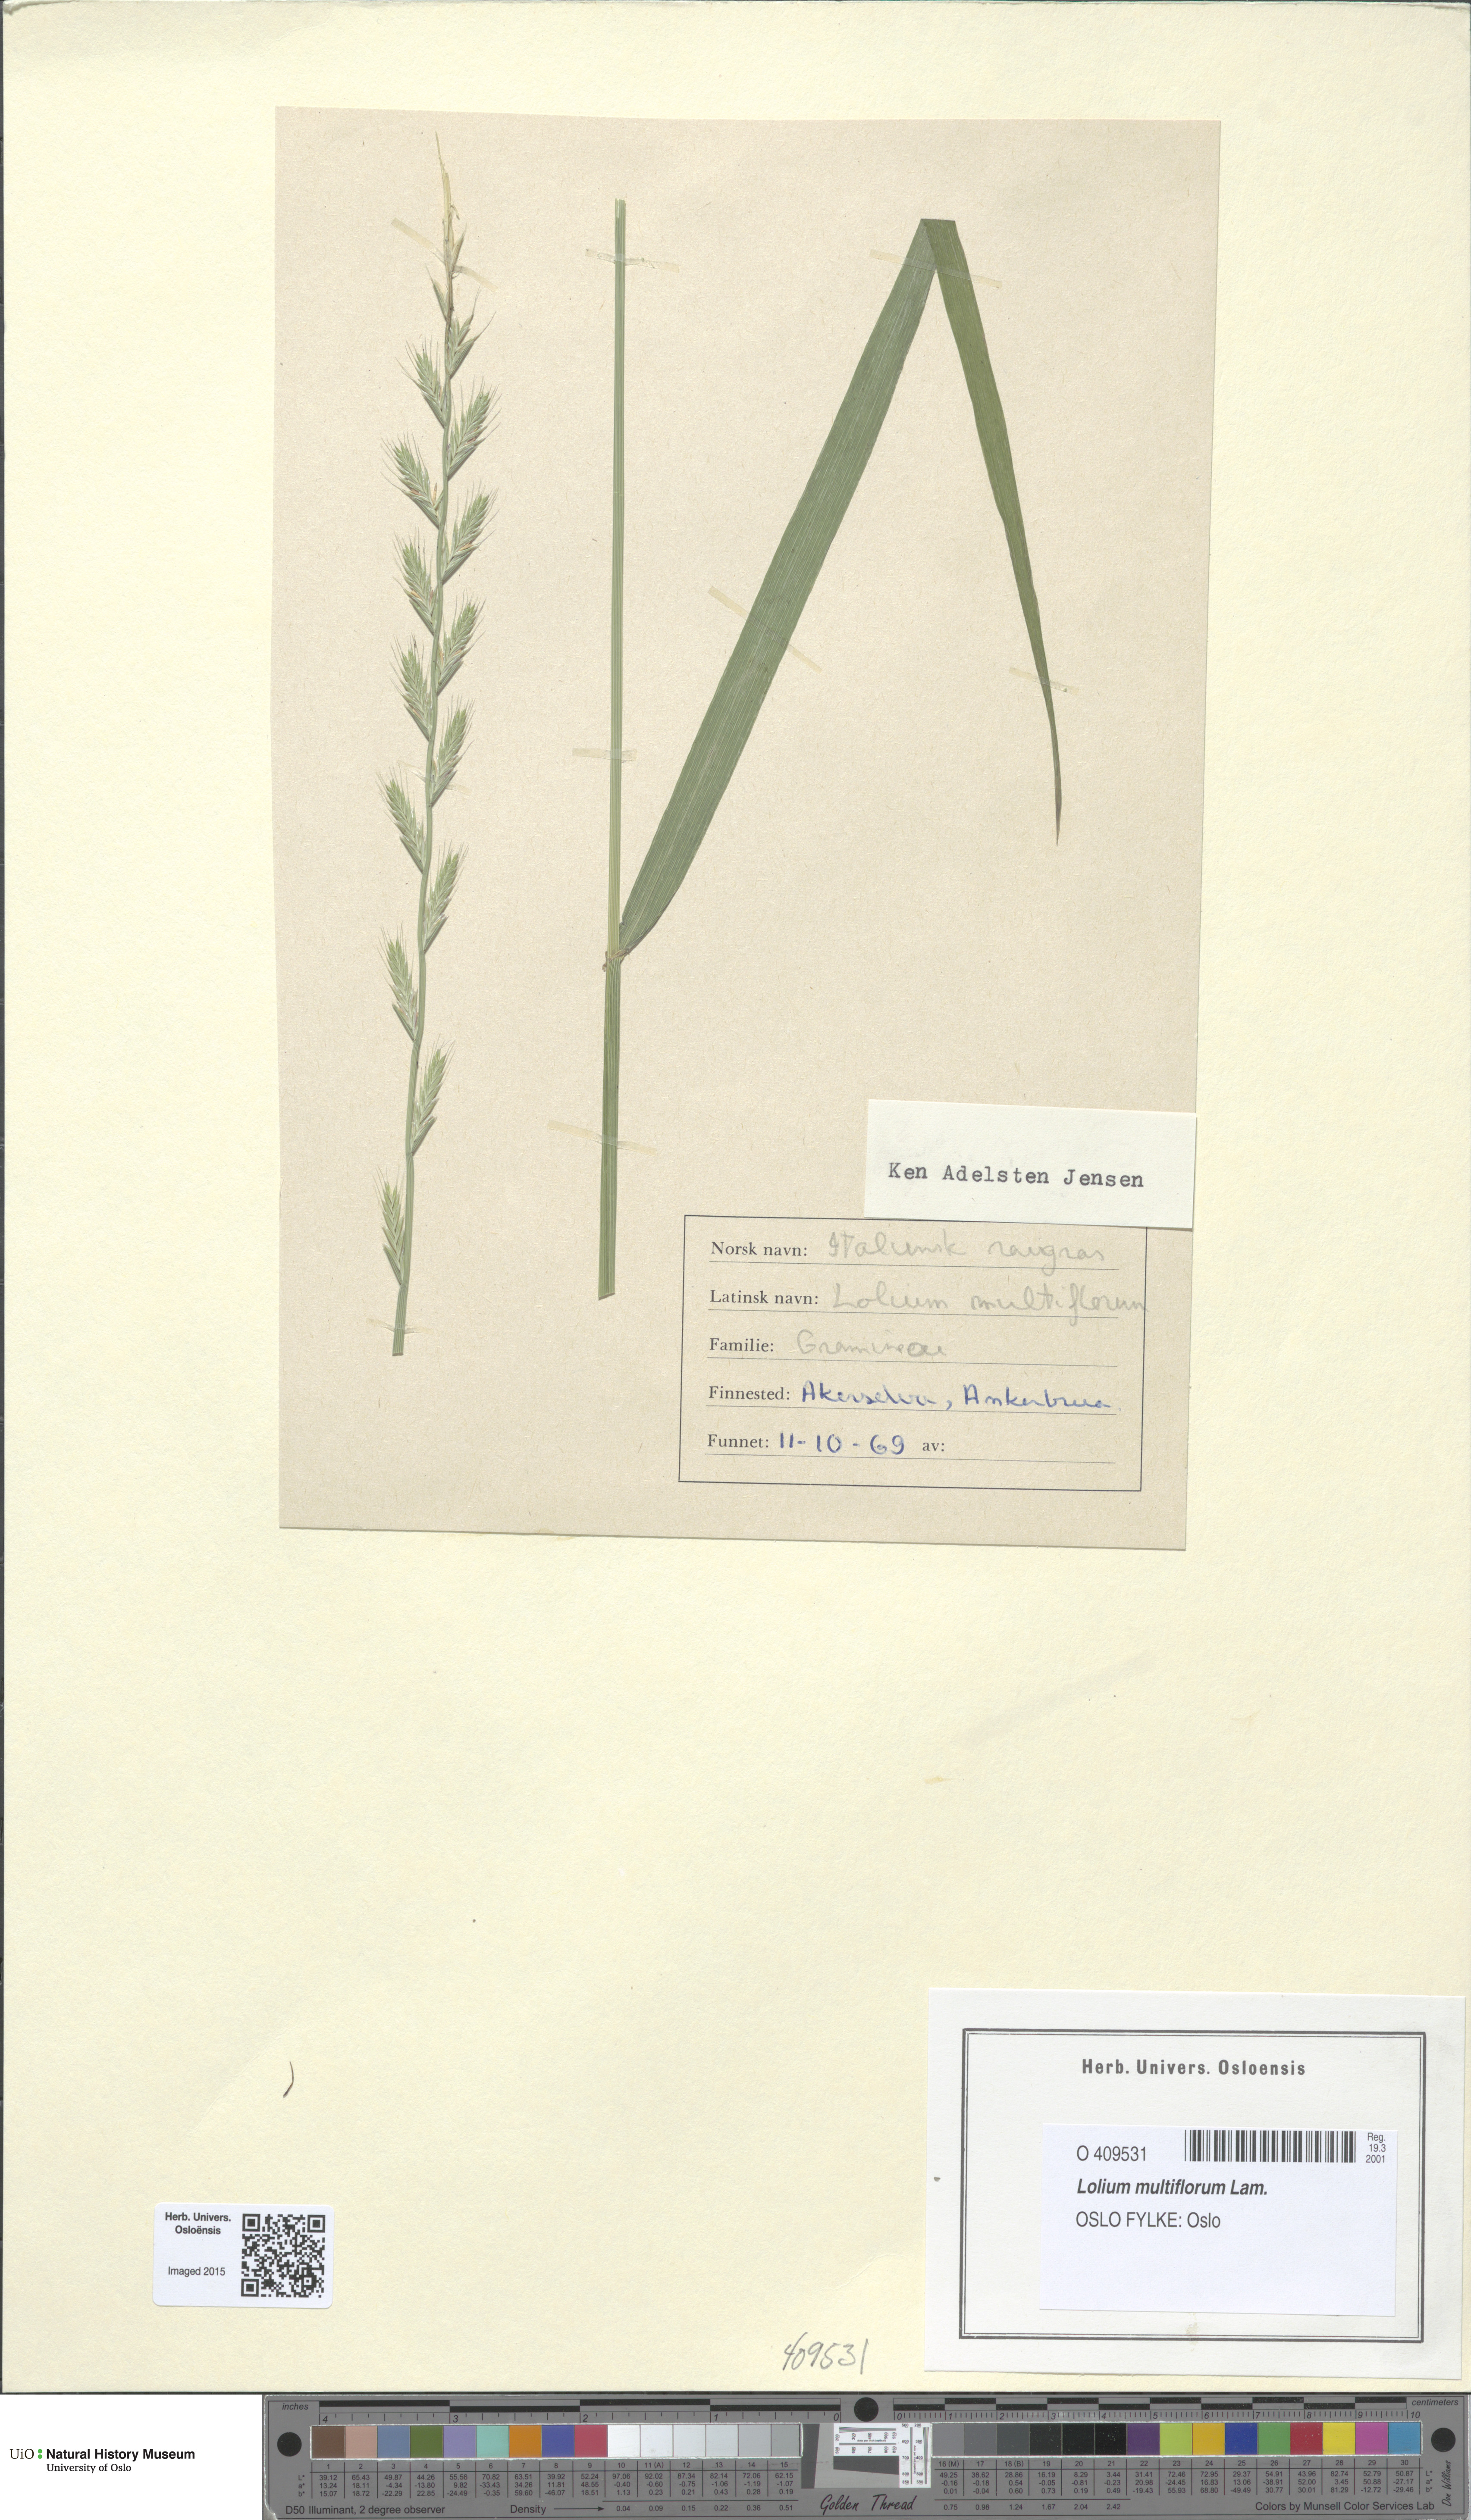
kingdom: Plantae
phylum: Tracheophyta
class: Liliopsida
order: Poales
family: Poaceae
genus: Lolium
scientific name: Lolium multiflorum
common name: Annual ryegrass
